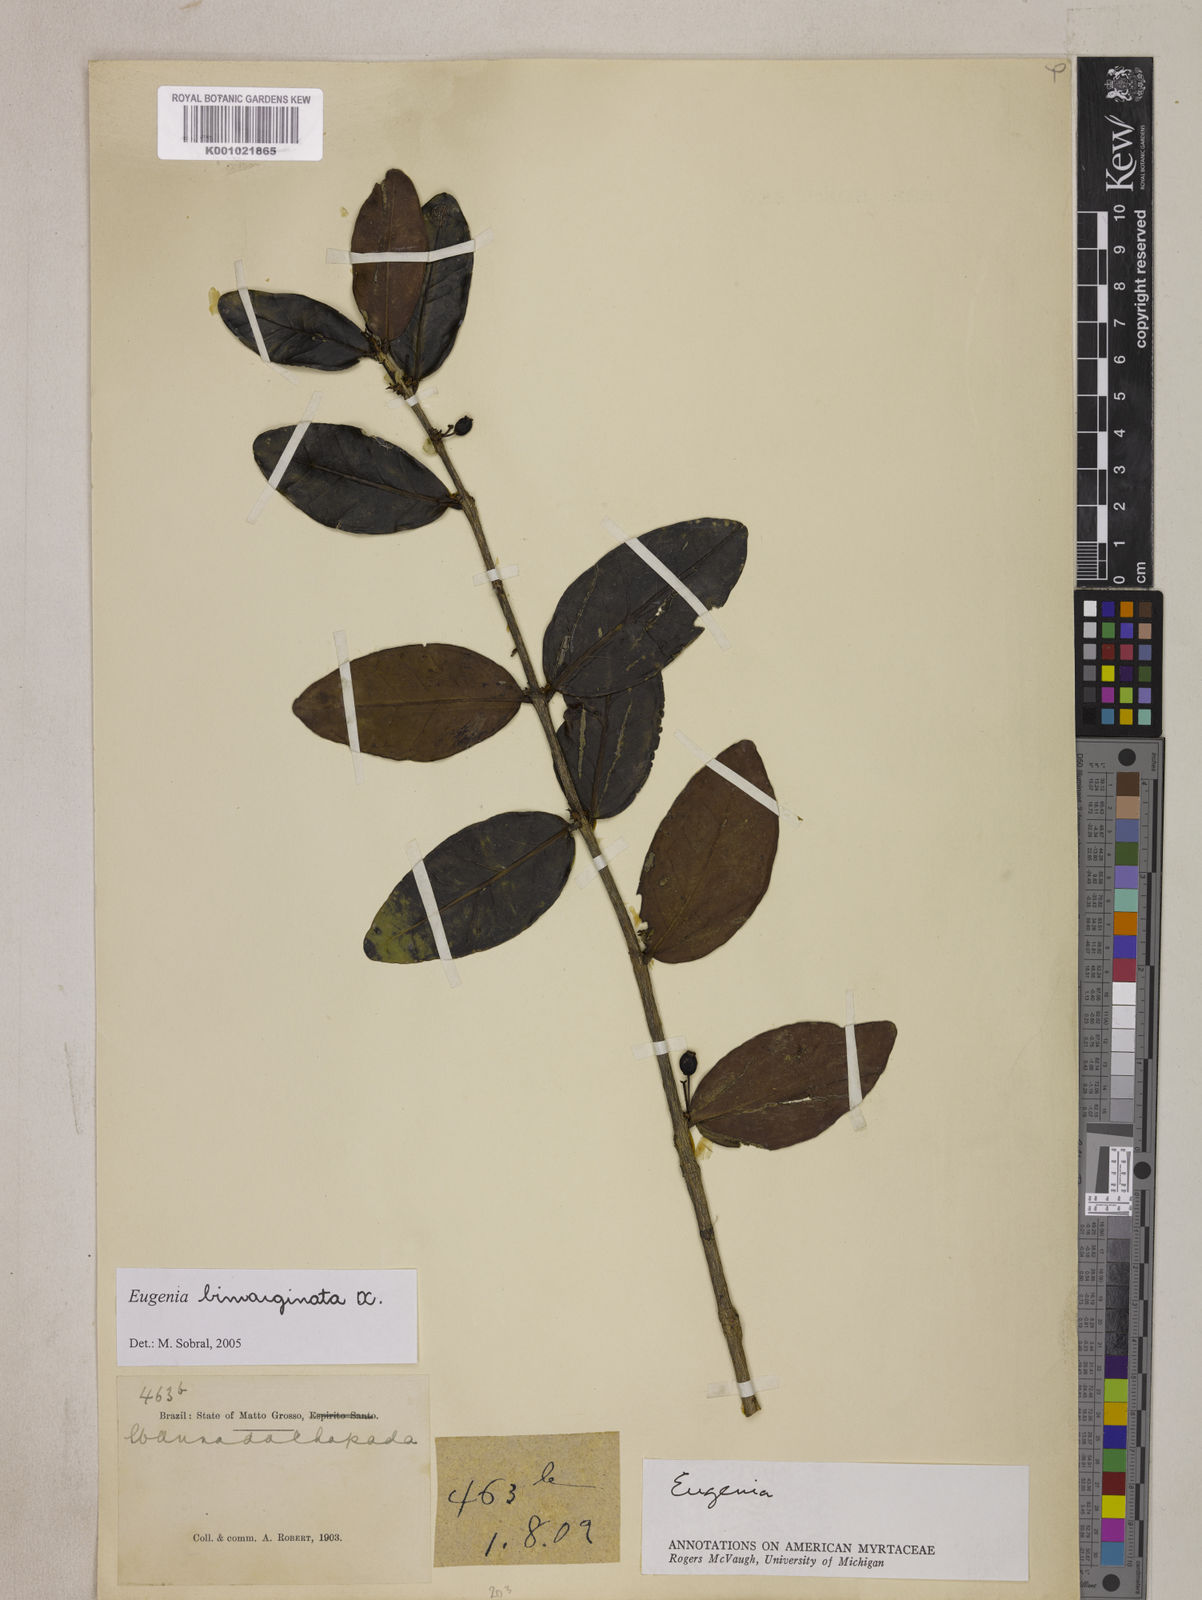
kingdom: Plantae
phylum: Tracheophyta
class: Magnoliopsida
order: Myrtales
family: Myrtaceae
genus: Eugenia
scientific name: Eugenia bimarginata
